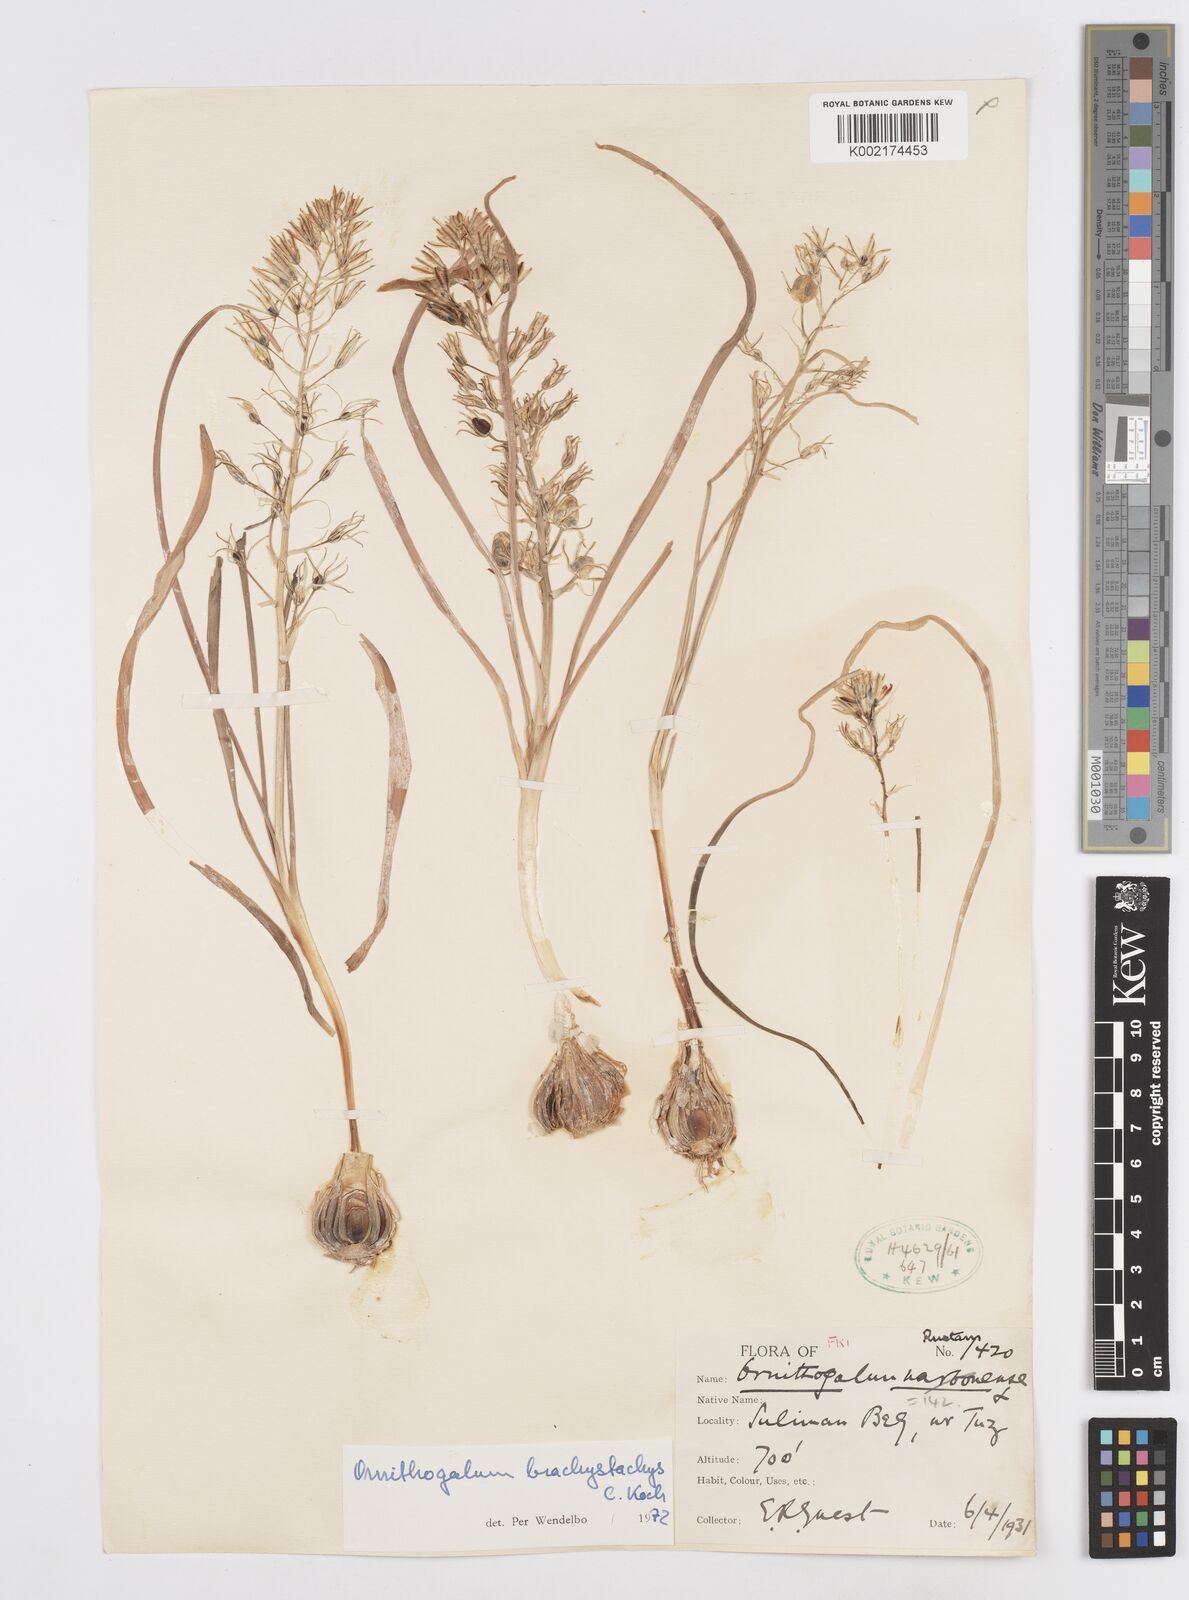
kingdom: Plantae
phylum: Tracheophyta
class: Liliopsida
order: Asparagales
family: Asparagaceae
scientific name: Asparagaceae
